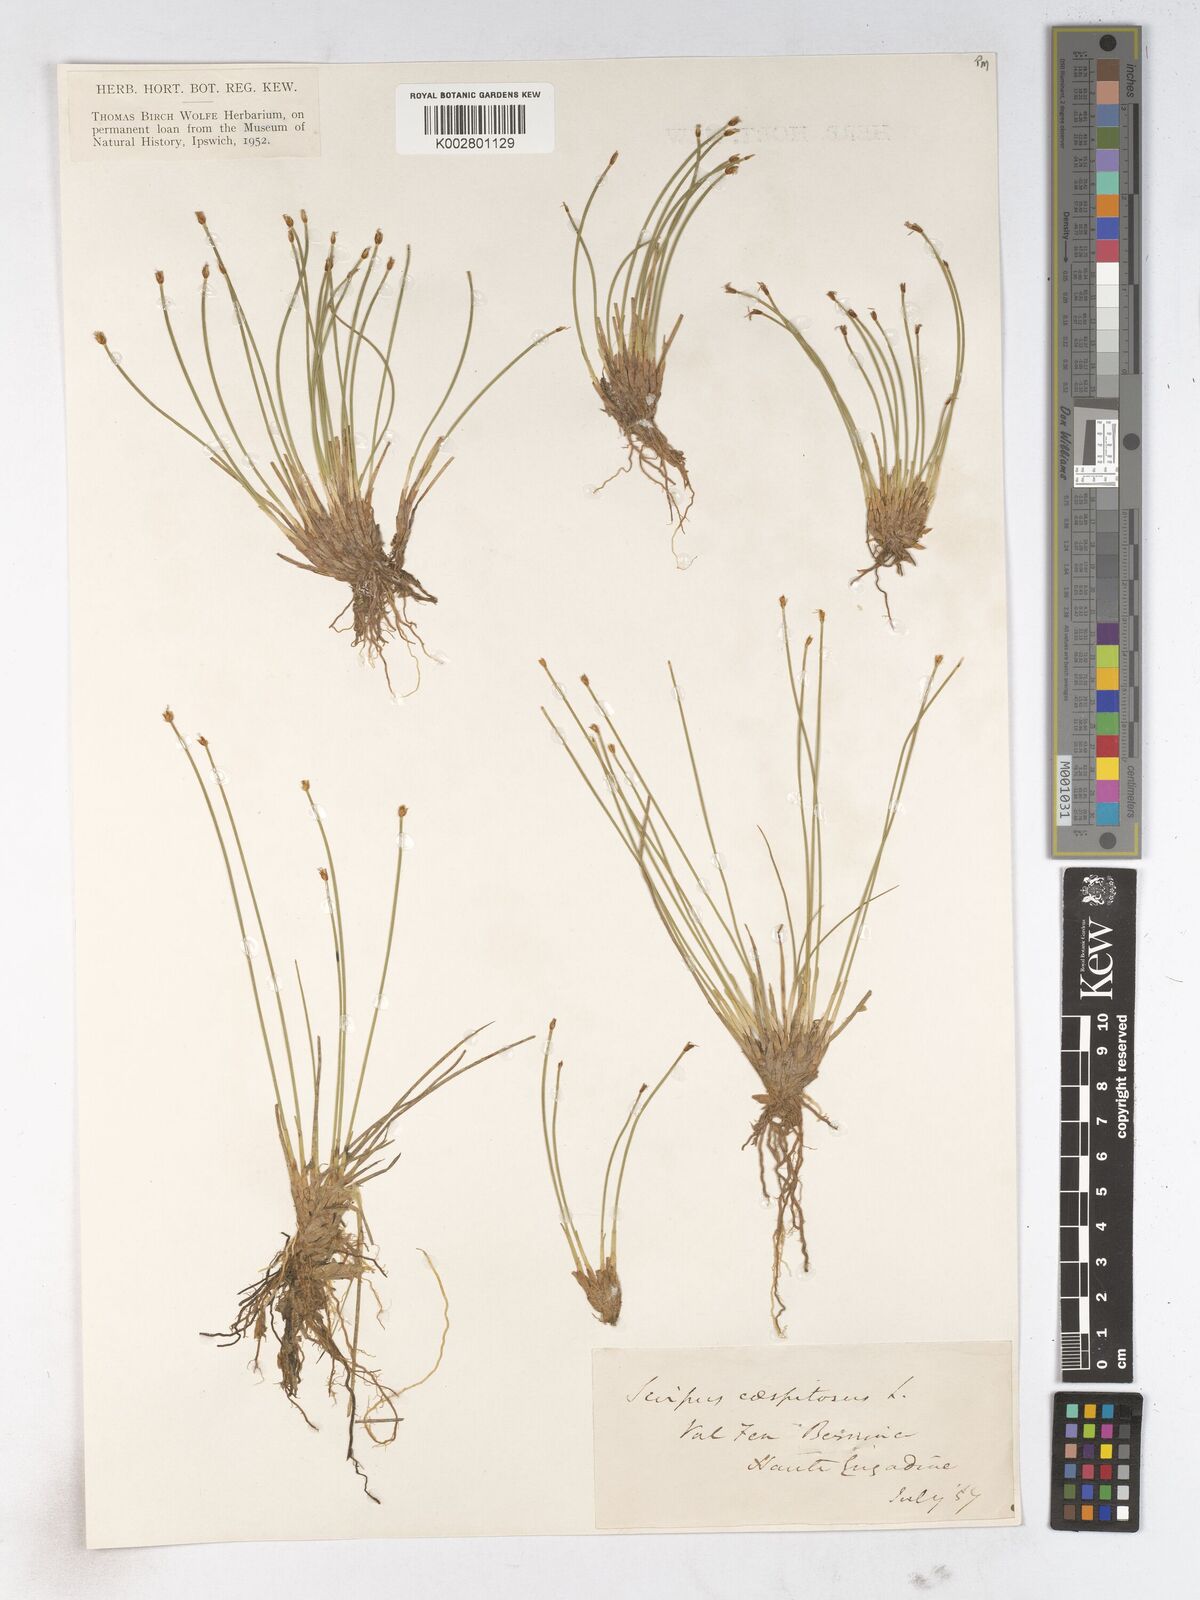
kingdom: Plantae
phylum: Tracheophyta
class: Liliopsida
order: Poales
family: Cyperaceae
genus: Trichophorum
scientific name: Trichophorum cespitosum
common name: Cespitose bulrush
